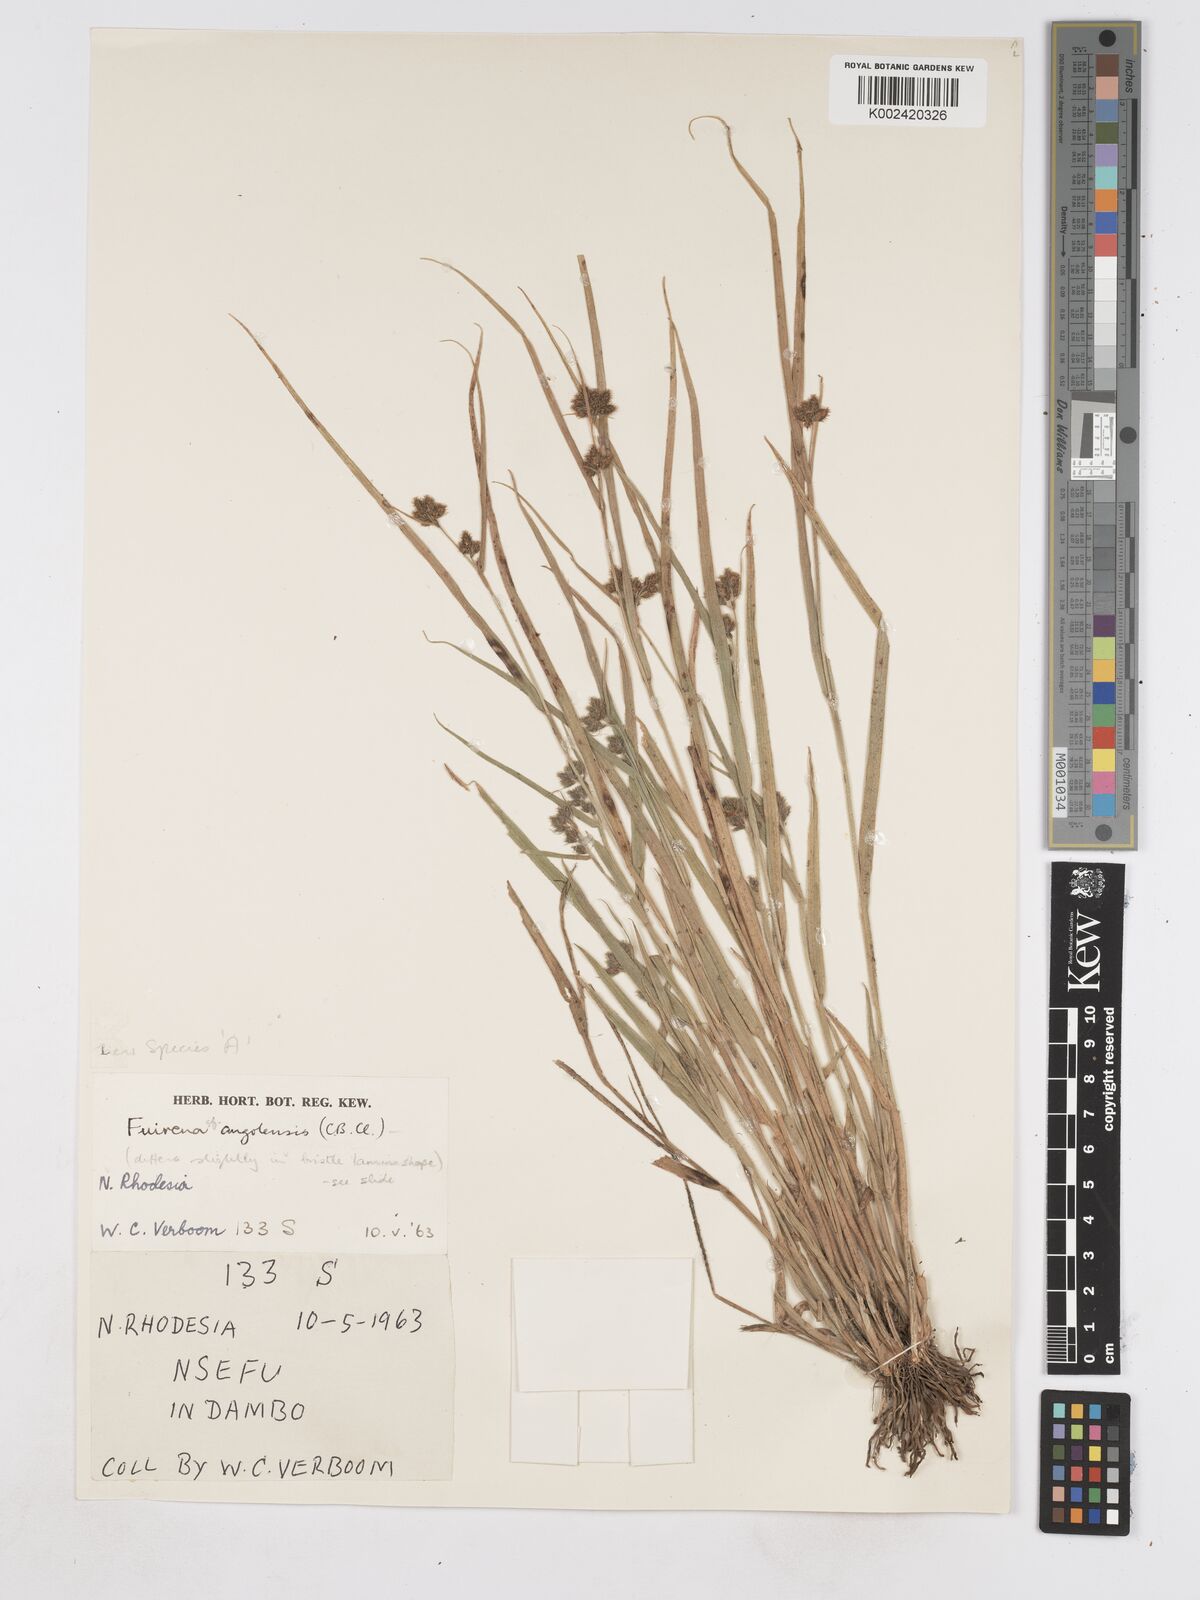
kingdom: Plantae
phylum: Tracheophyta
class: Liliopsida
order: Poales
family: Cyperaceae
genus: Fuirena
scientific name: Fuirena angolensis
